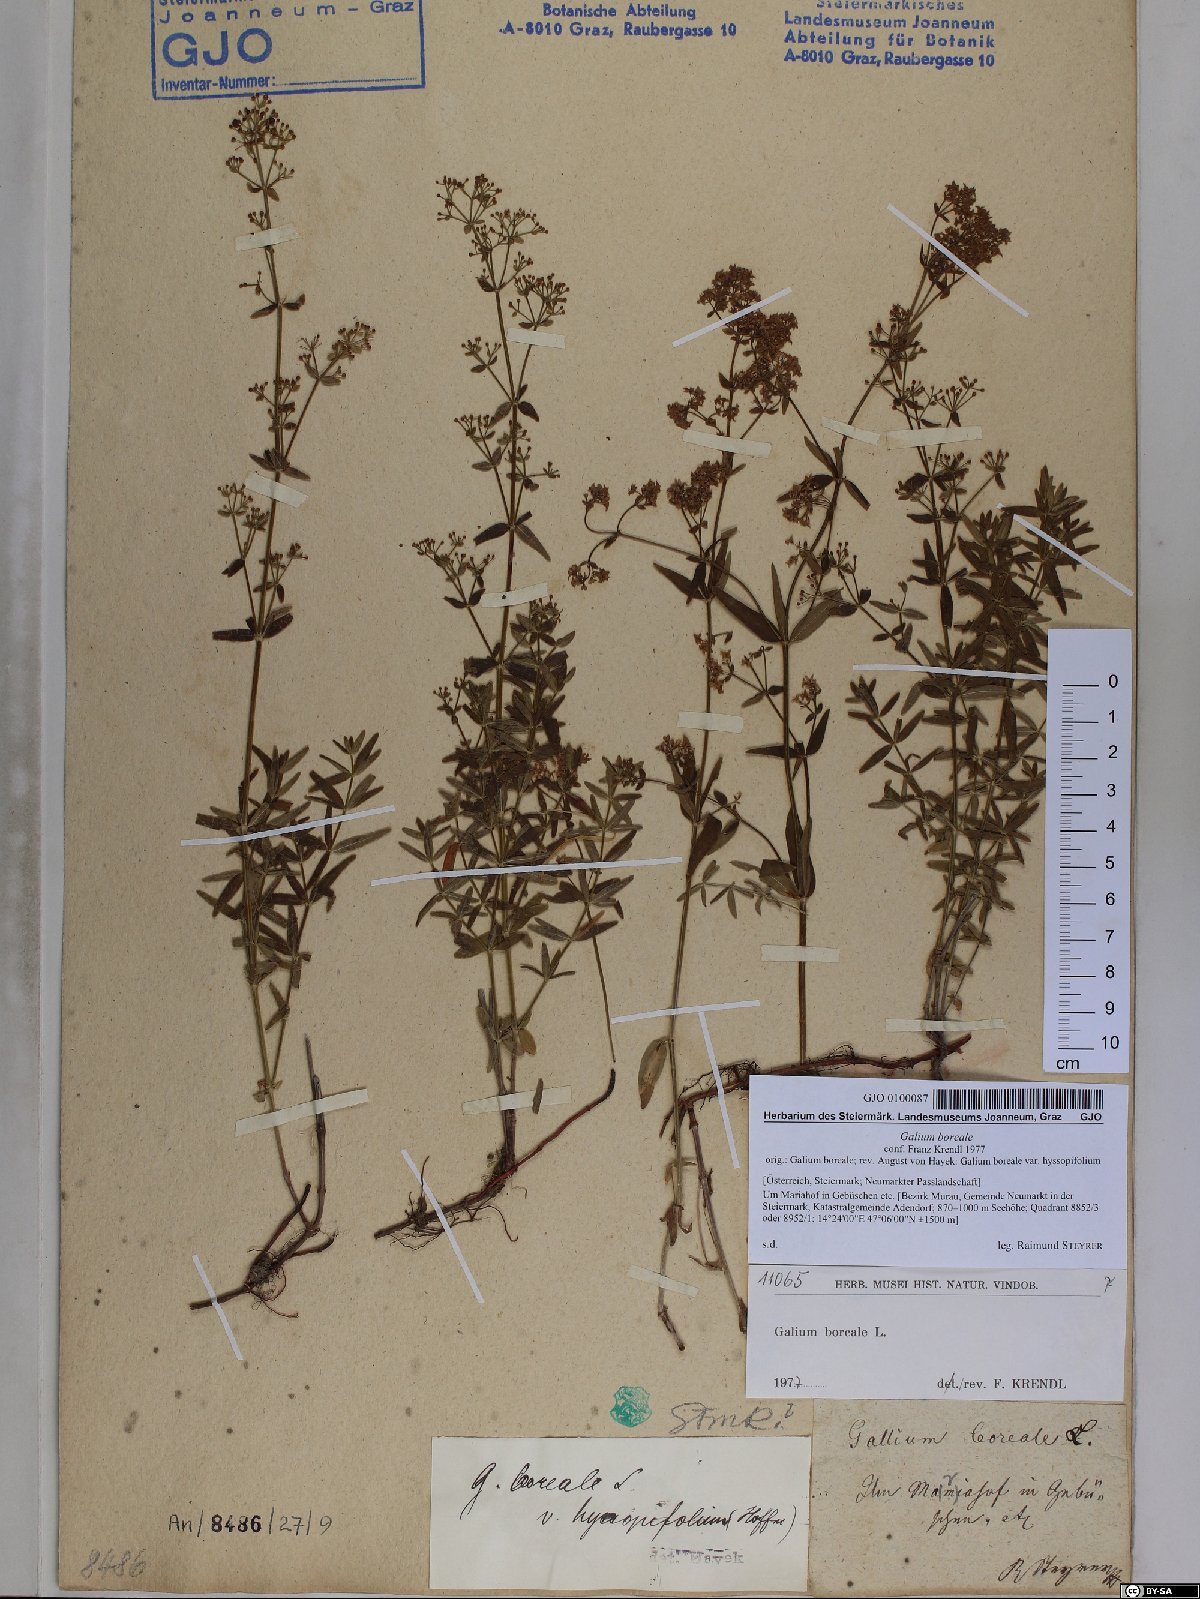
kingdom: Plantae
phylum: Tracheophyta
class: Magnoliopsida
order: Gentianales
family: Rubiaceae
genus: Galium
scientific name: Galium boreale
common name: Northern bedstraw
